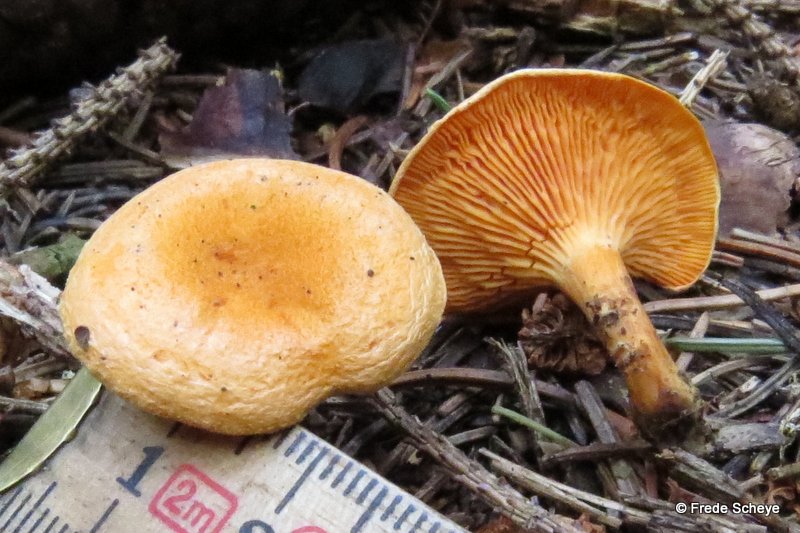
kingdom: Fungi
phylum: Basidiomycota
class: Agaricomycetes
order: Boletales
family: Hygrophoropsidaceae
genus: Hygrophoropsis
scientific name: Hygrophoropsis aurantiaca
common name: almindelig orangekantarel
